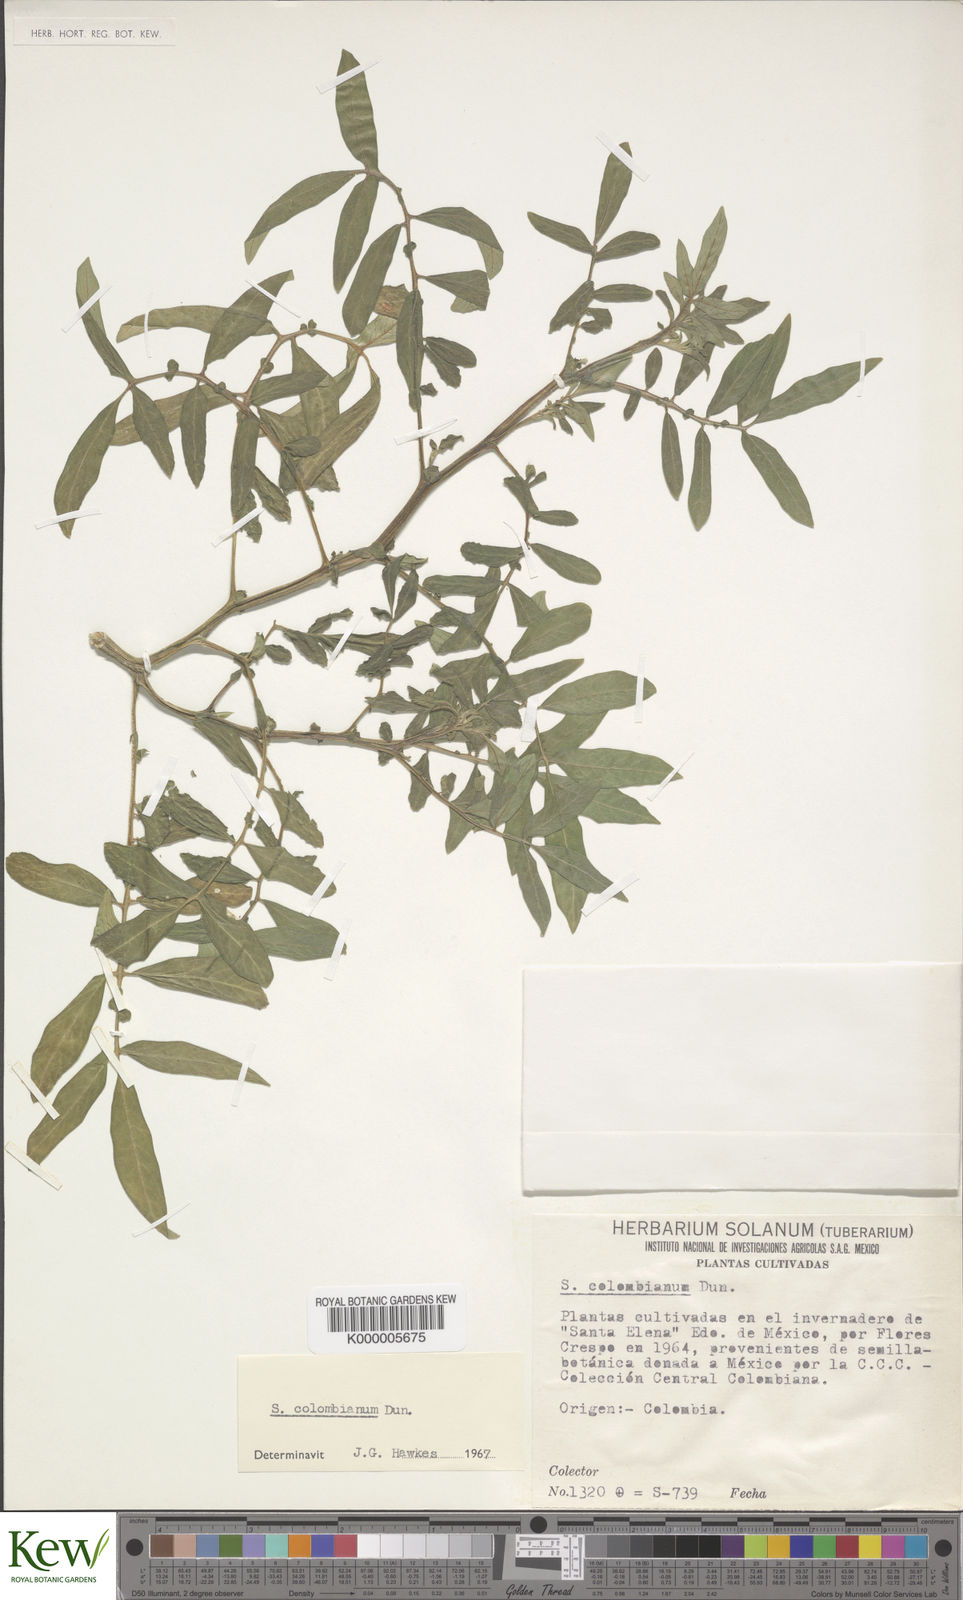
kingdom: Plantae
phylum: Tracheophyta
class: Magnoliopsida
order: Solanales
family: Solanaceae
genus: Solanum
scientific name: Solanum colombianum
